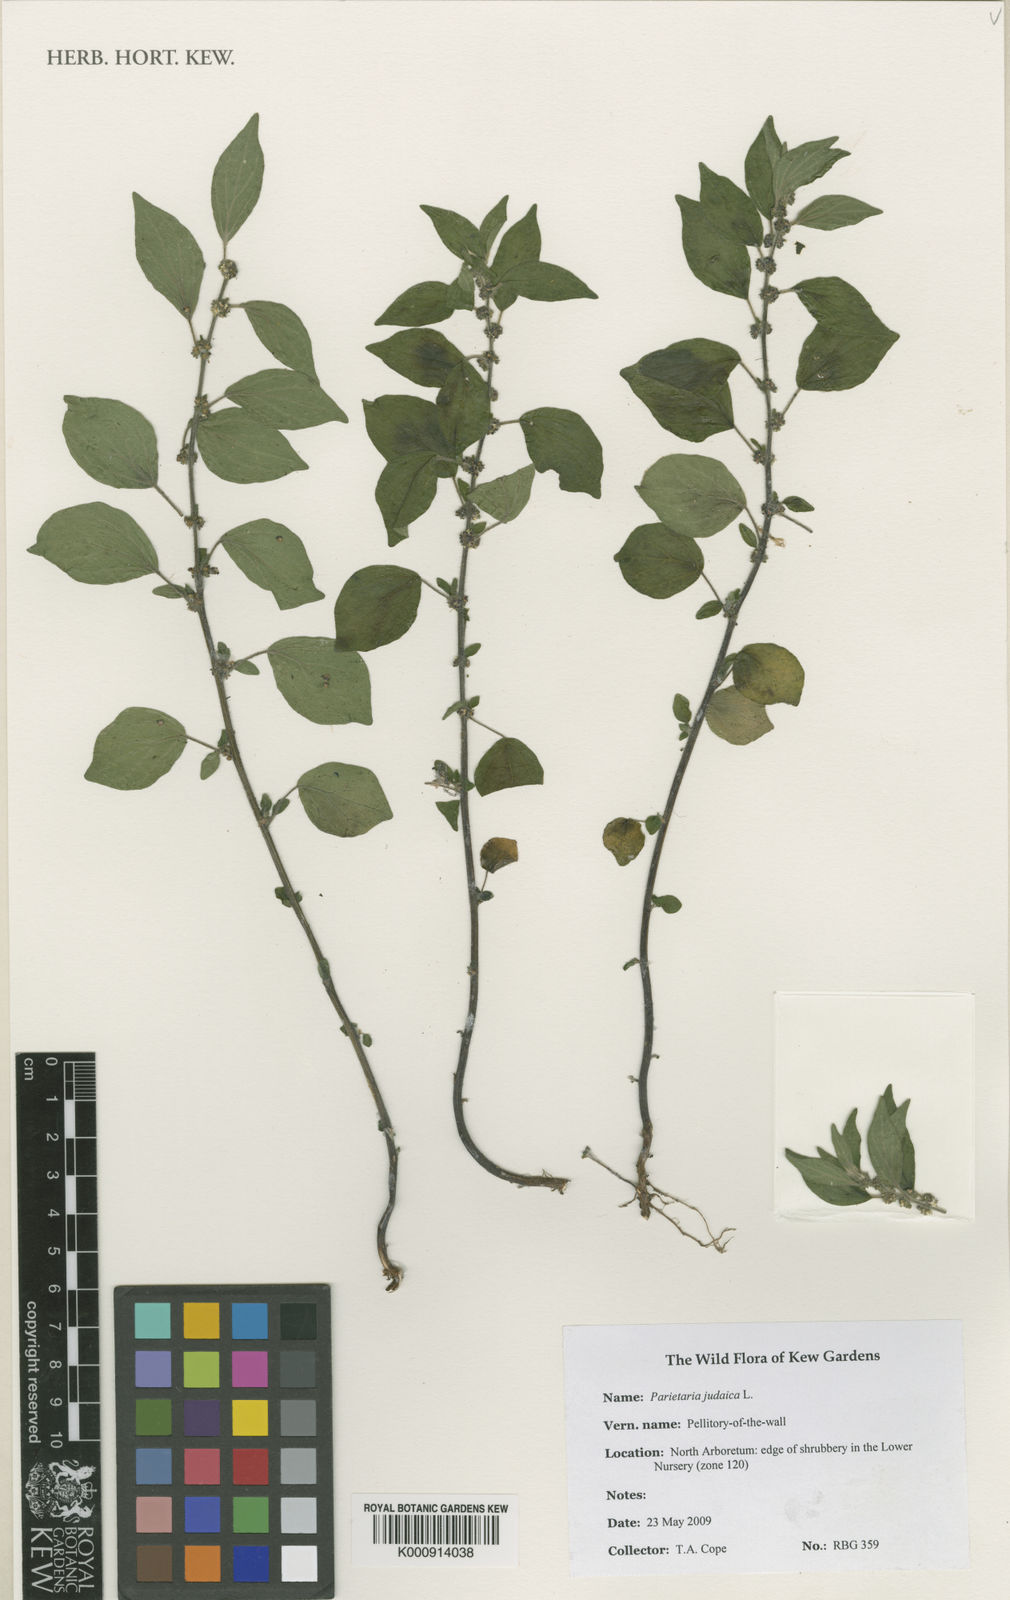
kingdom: Plantae
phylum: Tracheophyta
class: Magnoliopsida
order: Rosales
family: Urticaceae
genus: Parietaria
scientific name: Parietaria judaica
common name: Pellitory-of-the-wall
